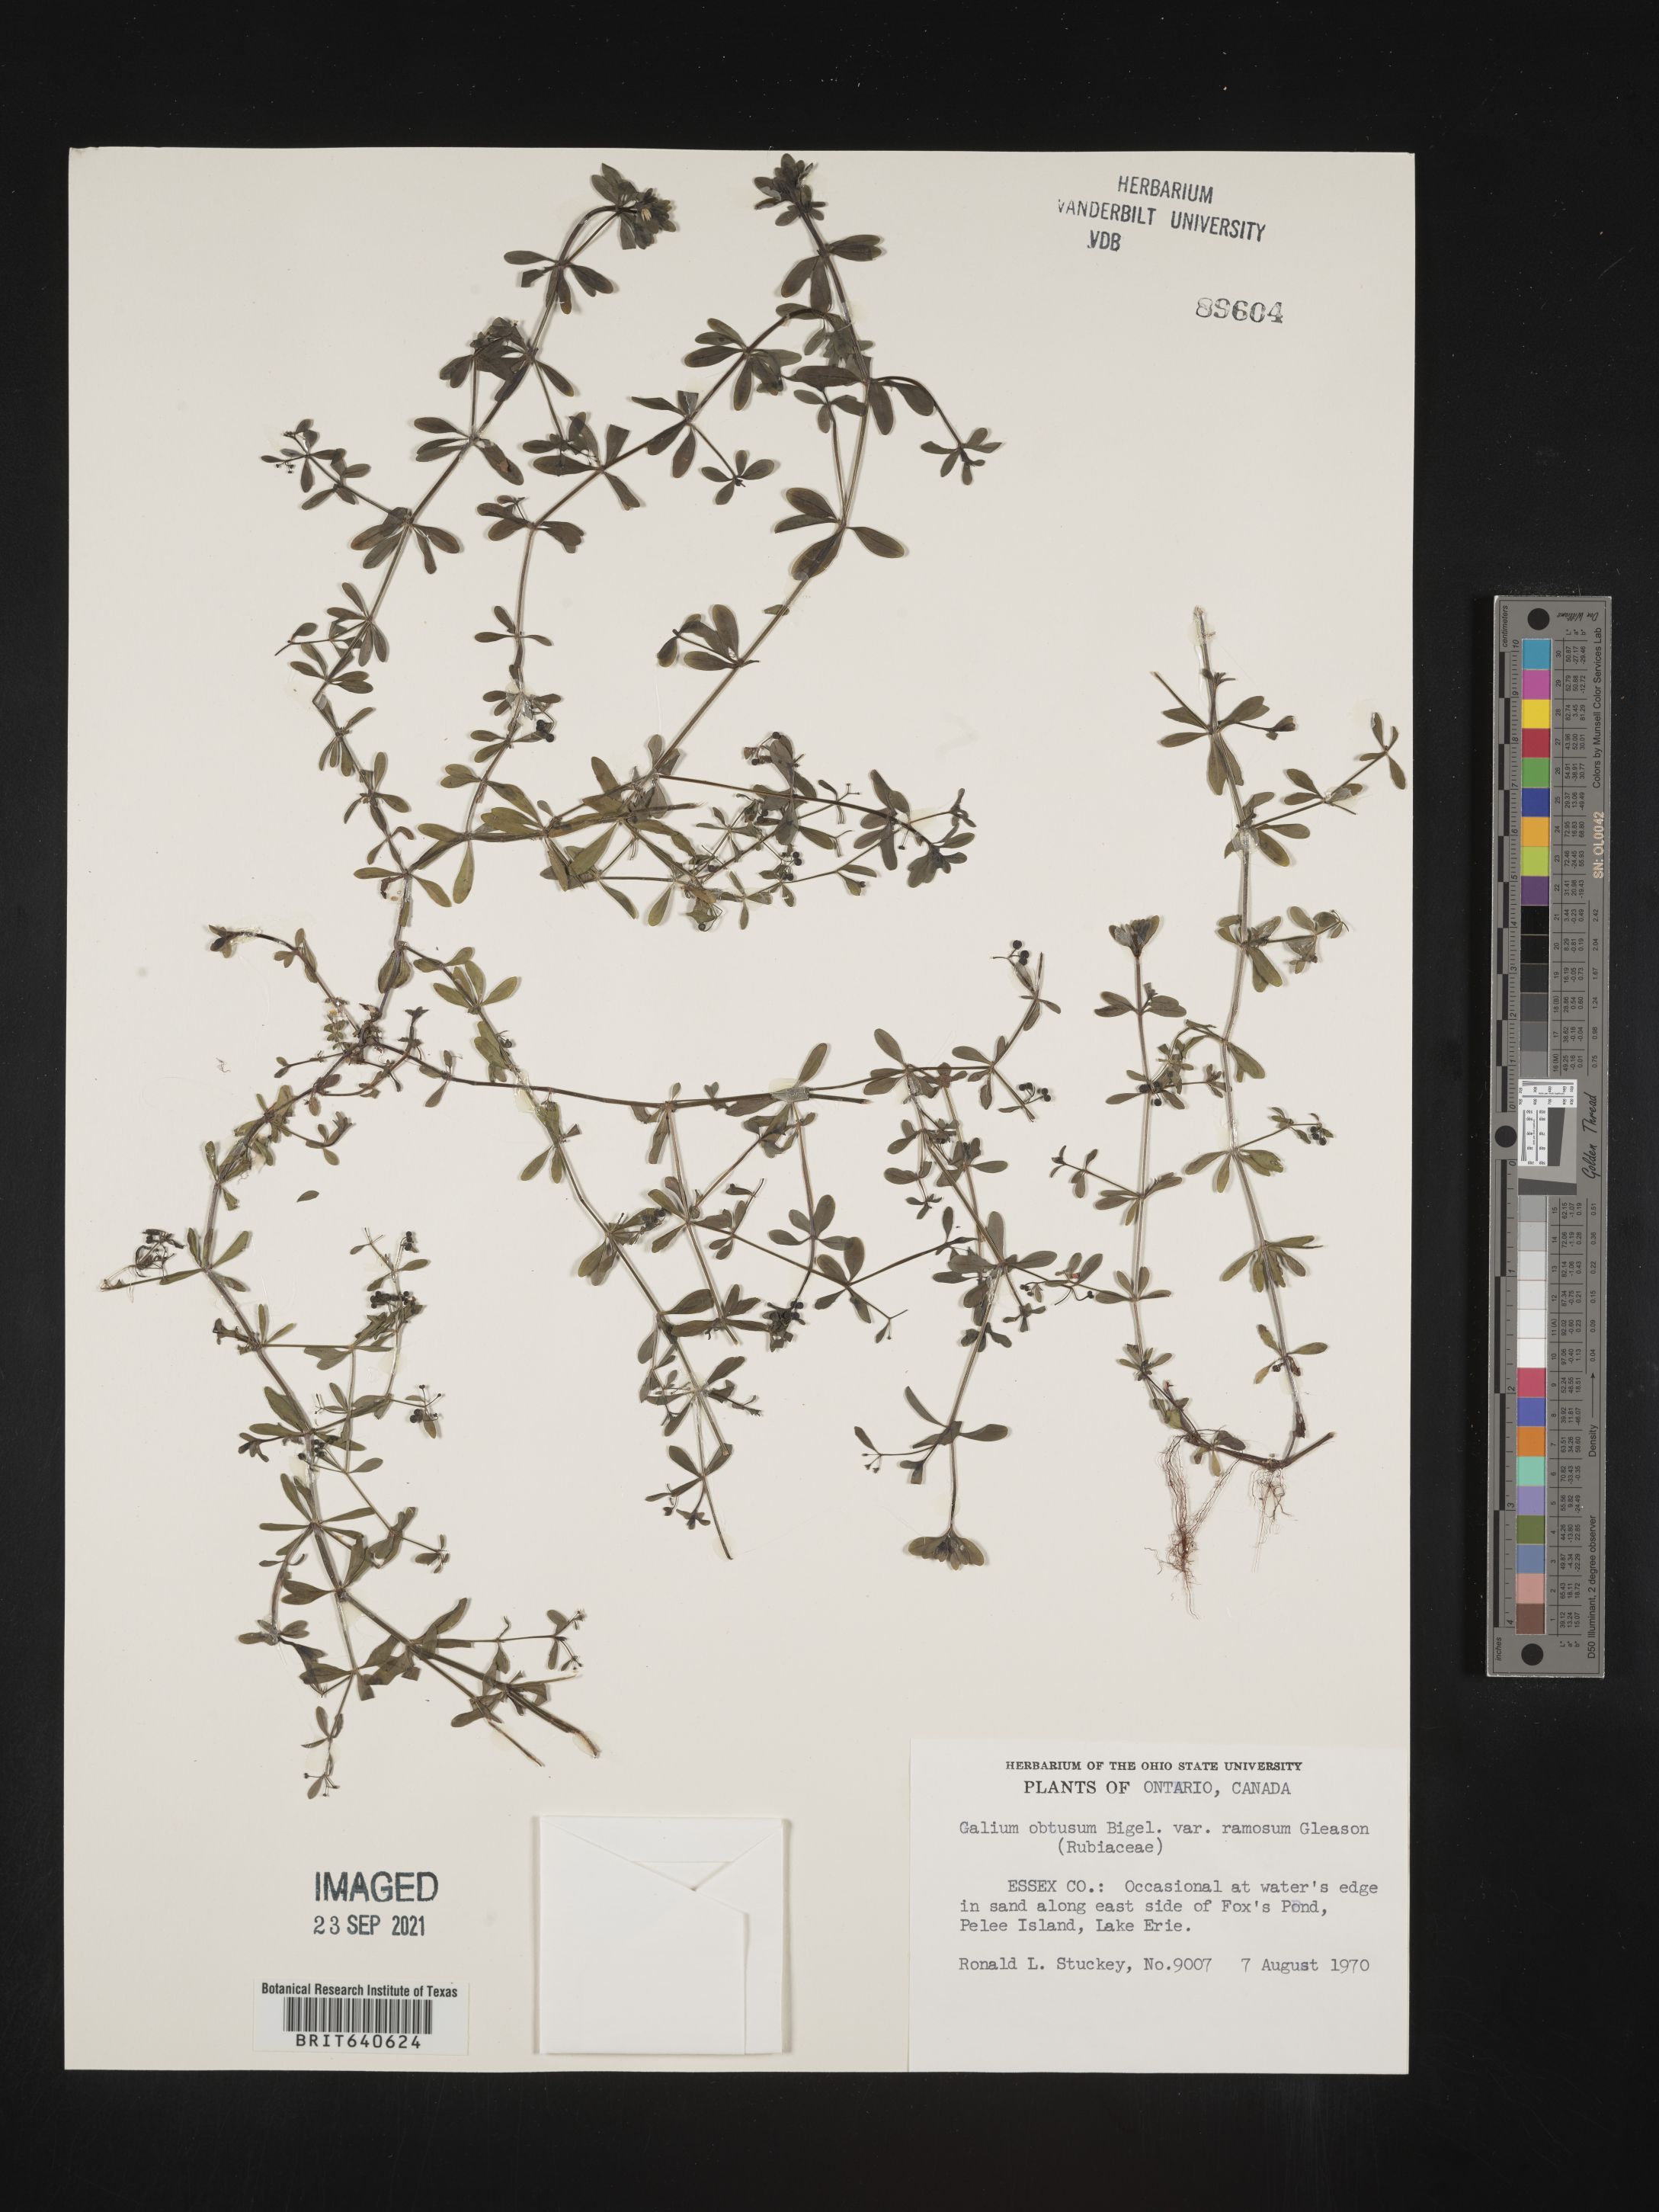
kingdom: Plantae
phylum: Tracheophyta
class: Magnoliopsida
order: Gentianales
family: Rubiaceae
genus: Galium
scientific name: Galium
